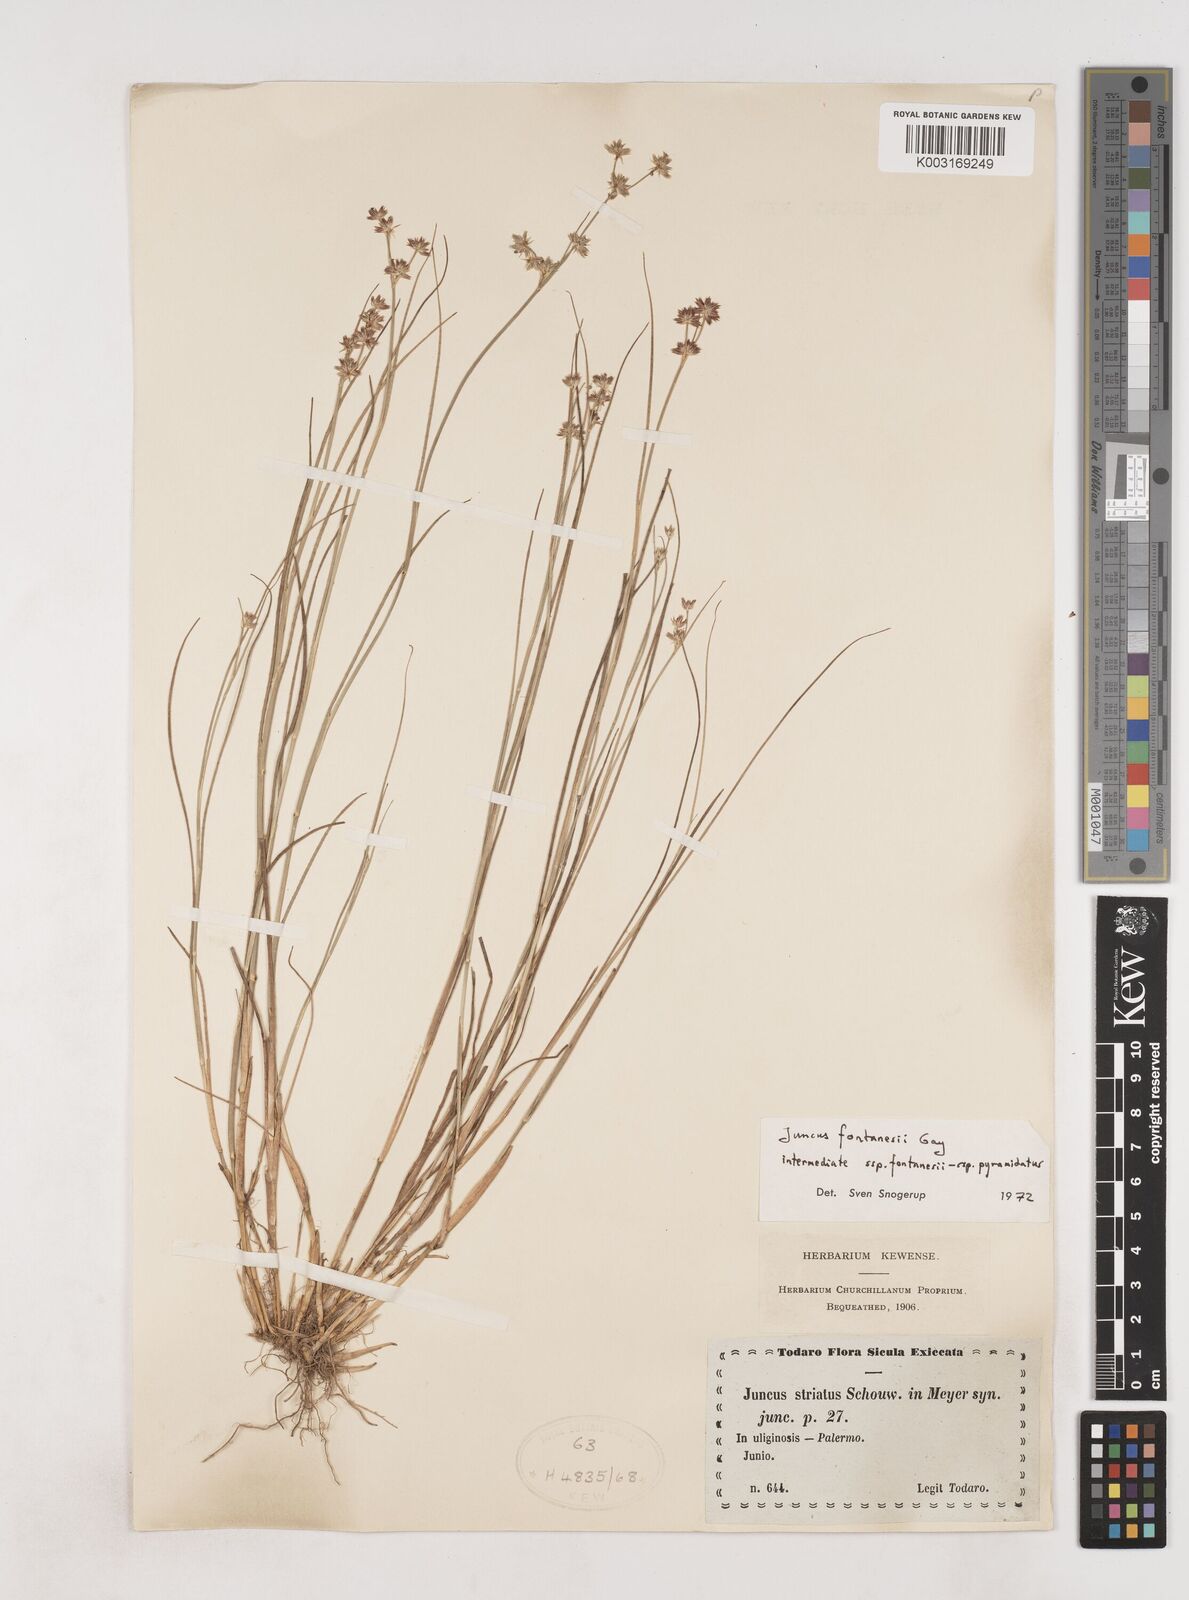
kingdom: Plantae
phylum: Tracheophyta
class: Liliopsida
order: Poales
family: Juncaceae
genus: Juncus
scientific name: Juncus fontanesii
